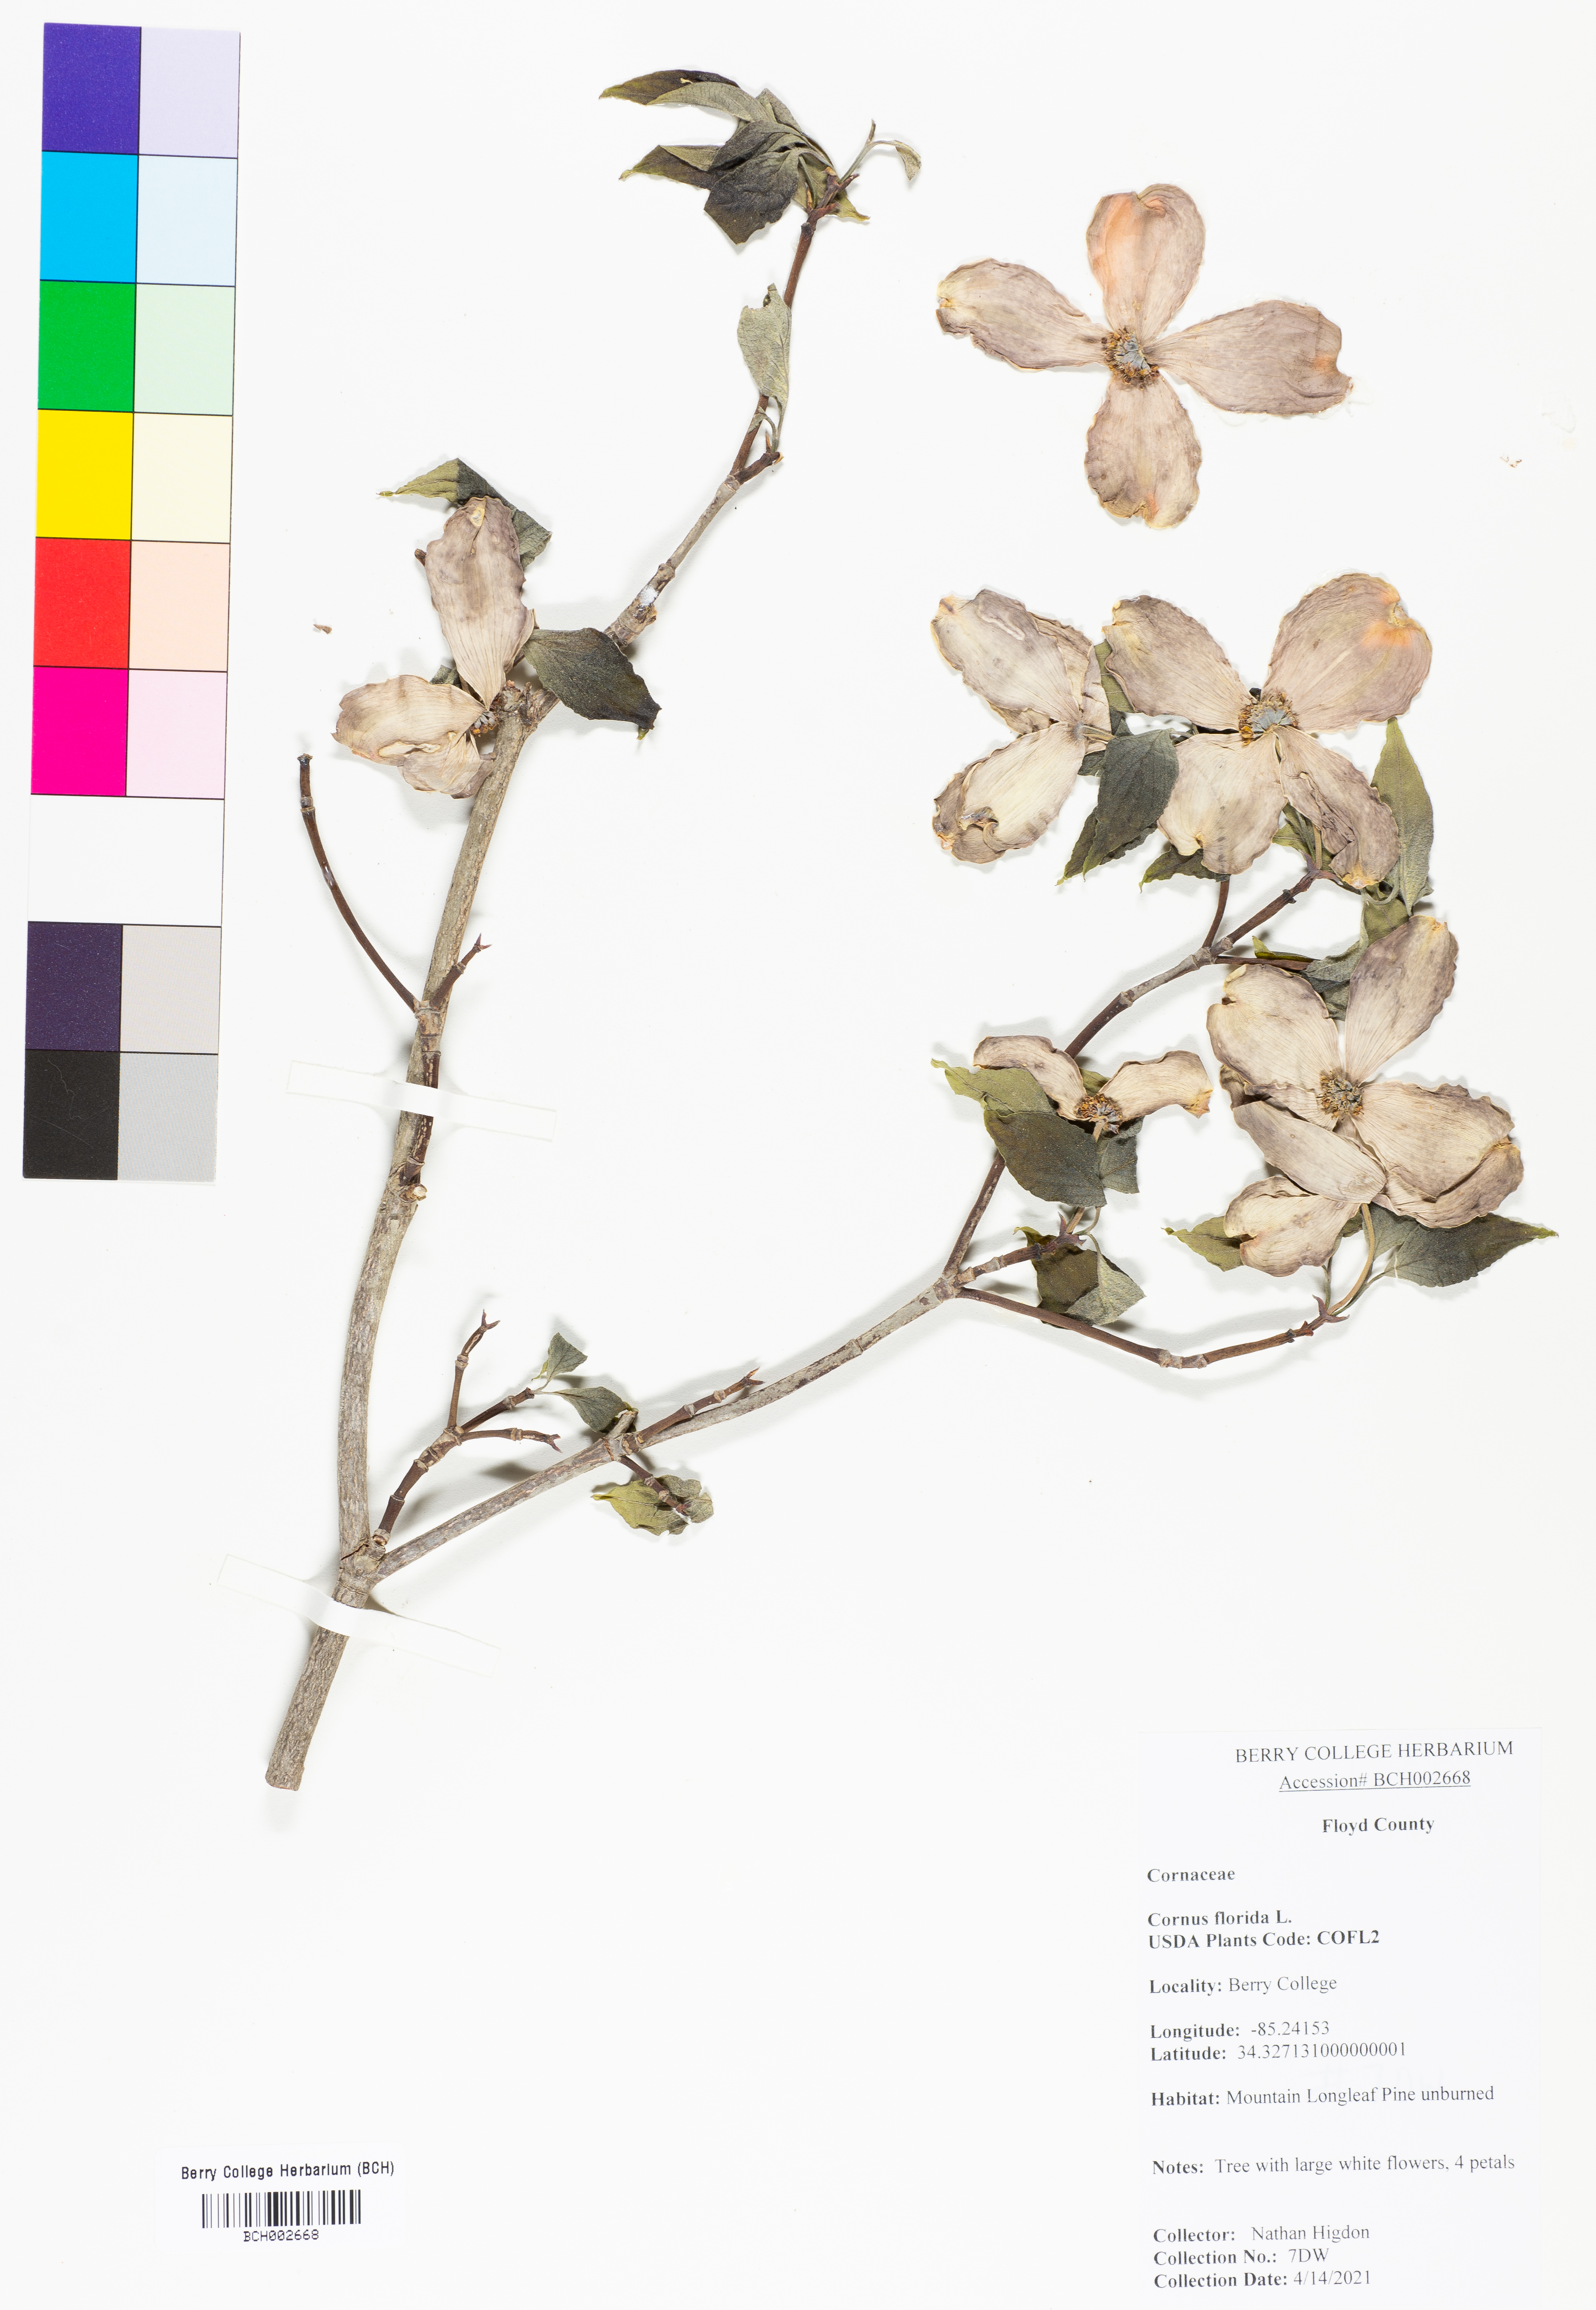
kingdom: Plantae
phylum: Tracheophyta
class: Magnoliopsida
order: Cornales
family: Cornaceae
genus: Cornus
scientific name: Cornus florida
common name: Flowering dogwood
